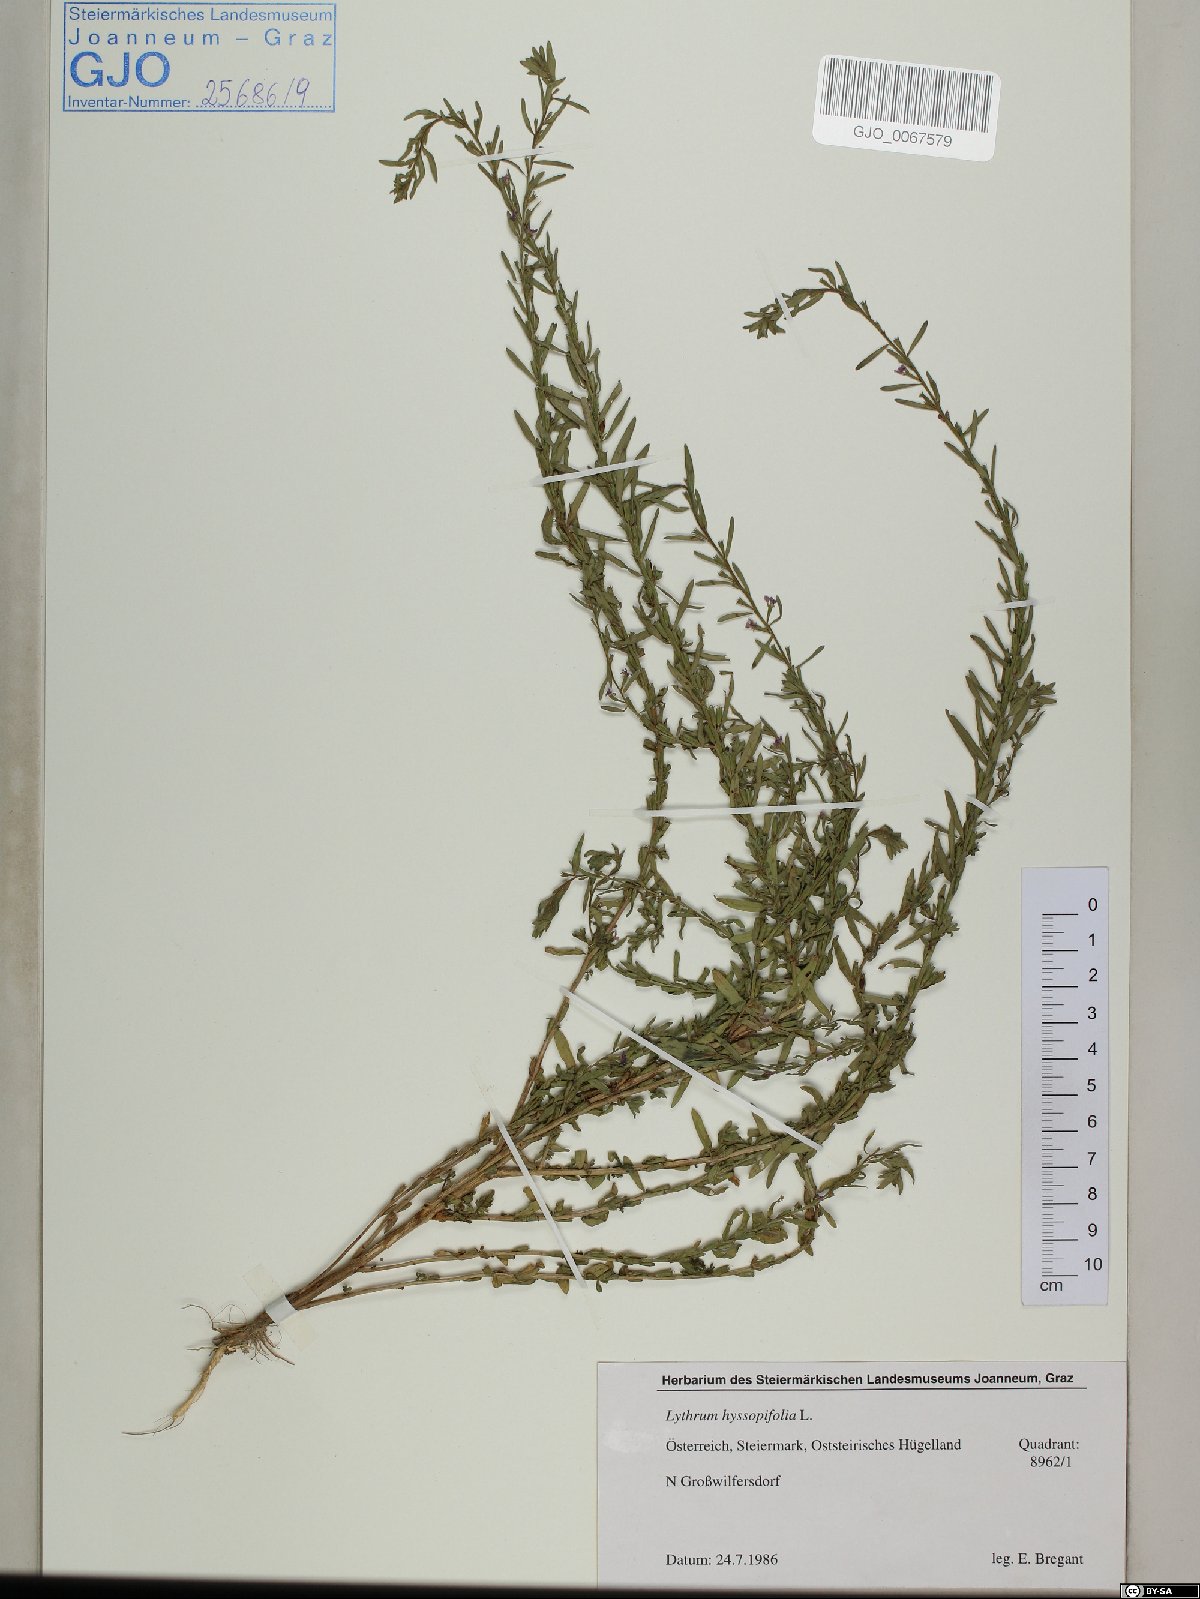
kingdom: Plantae
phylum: Tracheophyta
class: Magnoliopsida
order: Myrtales
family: Lythraceae
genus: Lythrum
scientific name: Lythrum hyssopifolia
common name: Grass-poly
